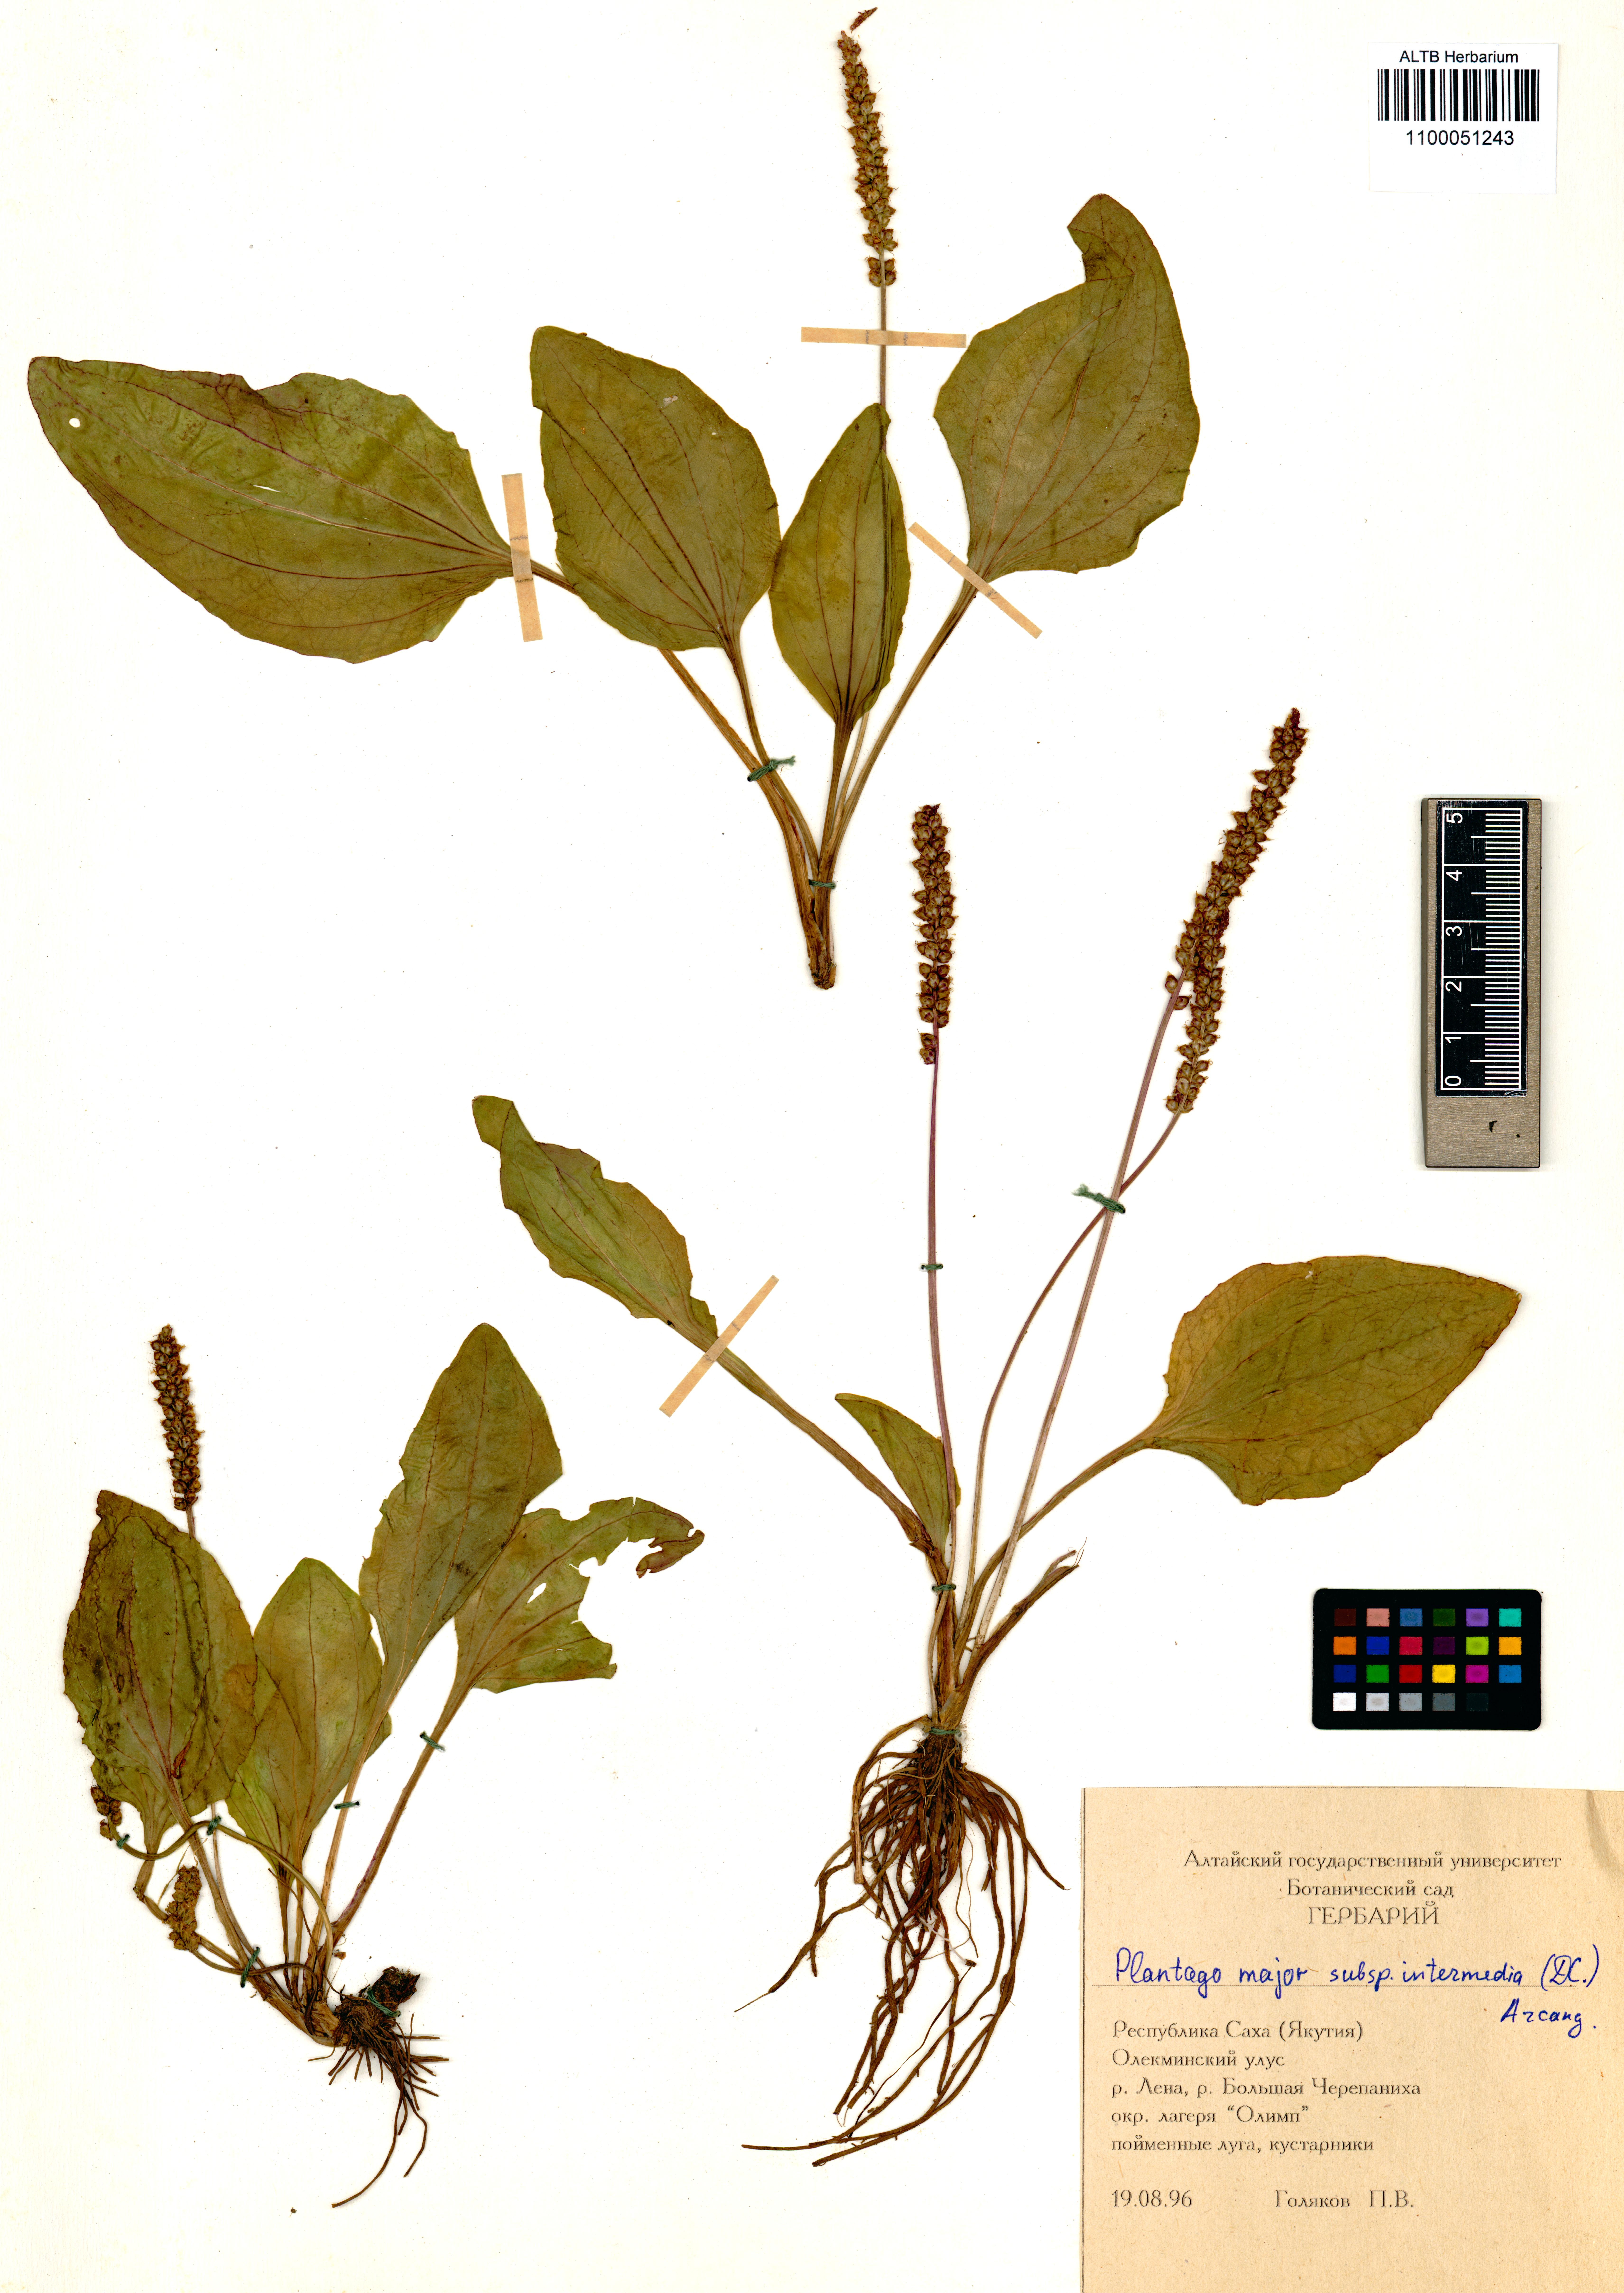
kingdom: Plantae
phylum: Tracheophyta
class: Magnoliopsida
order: Lamiales
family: Plantaginaceae
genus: Plantago
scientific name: Plantago major
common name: Common plantain
